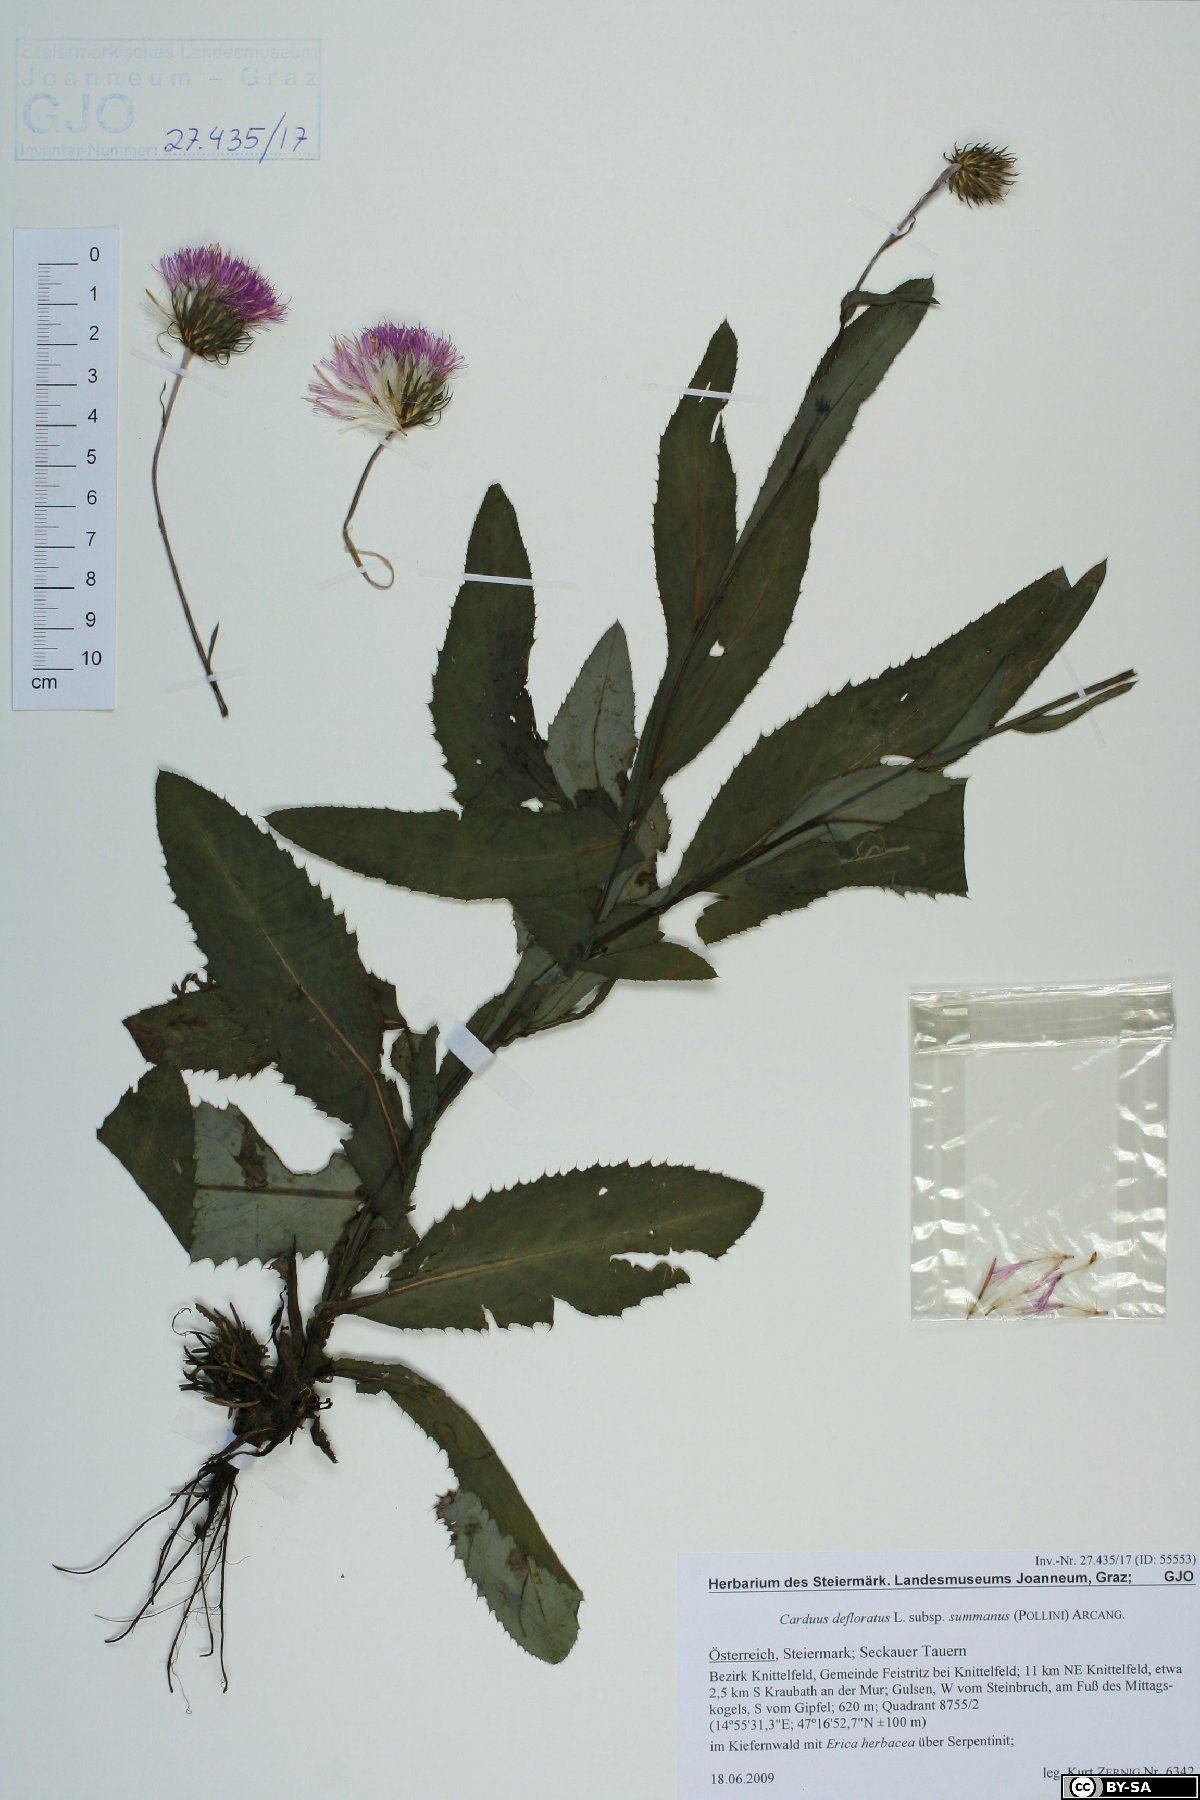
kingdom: Plantae
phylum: Tracheophyta
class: Magnoliopsida
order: Asterales
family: Asteraceae
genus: Carduus
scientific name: Carduus defloratus
